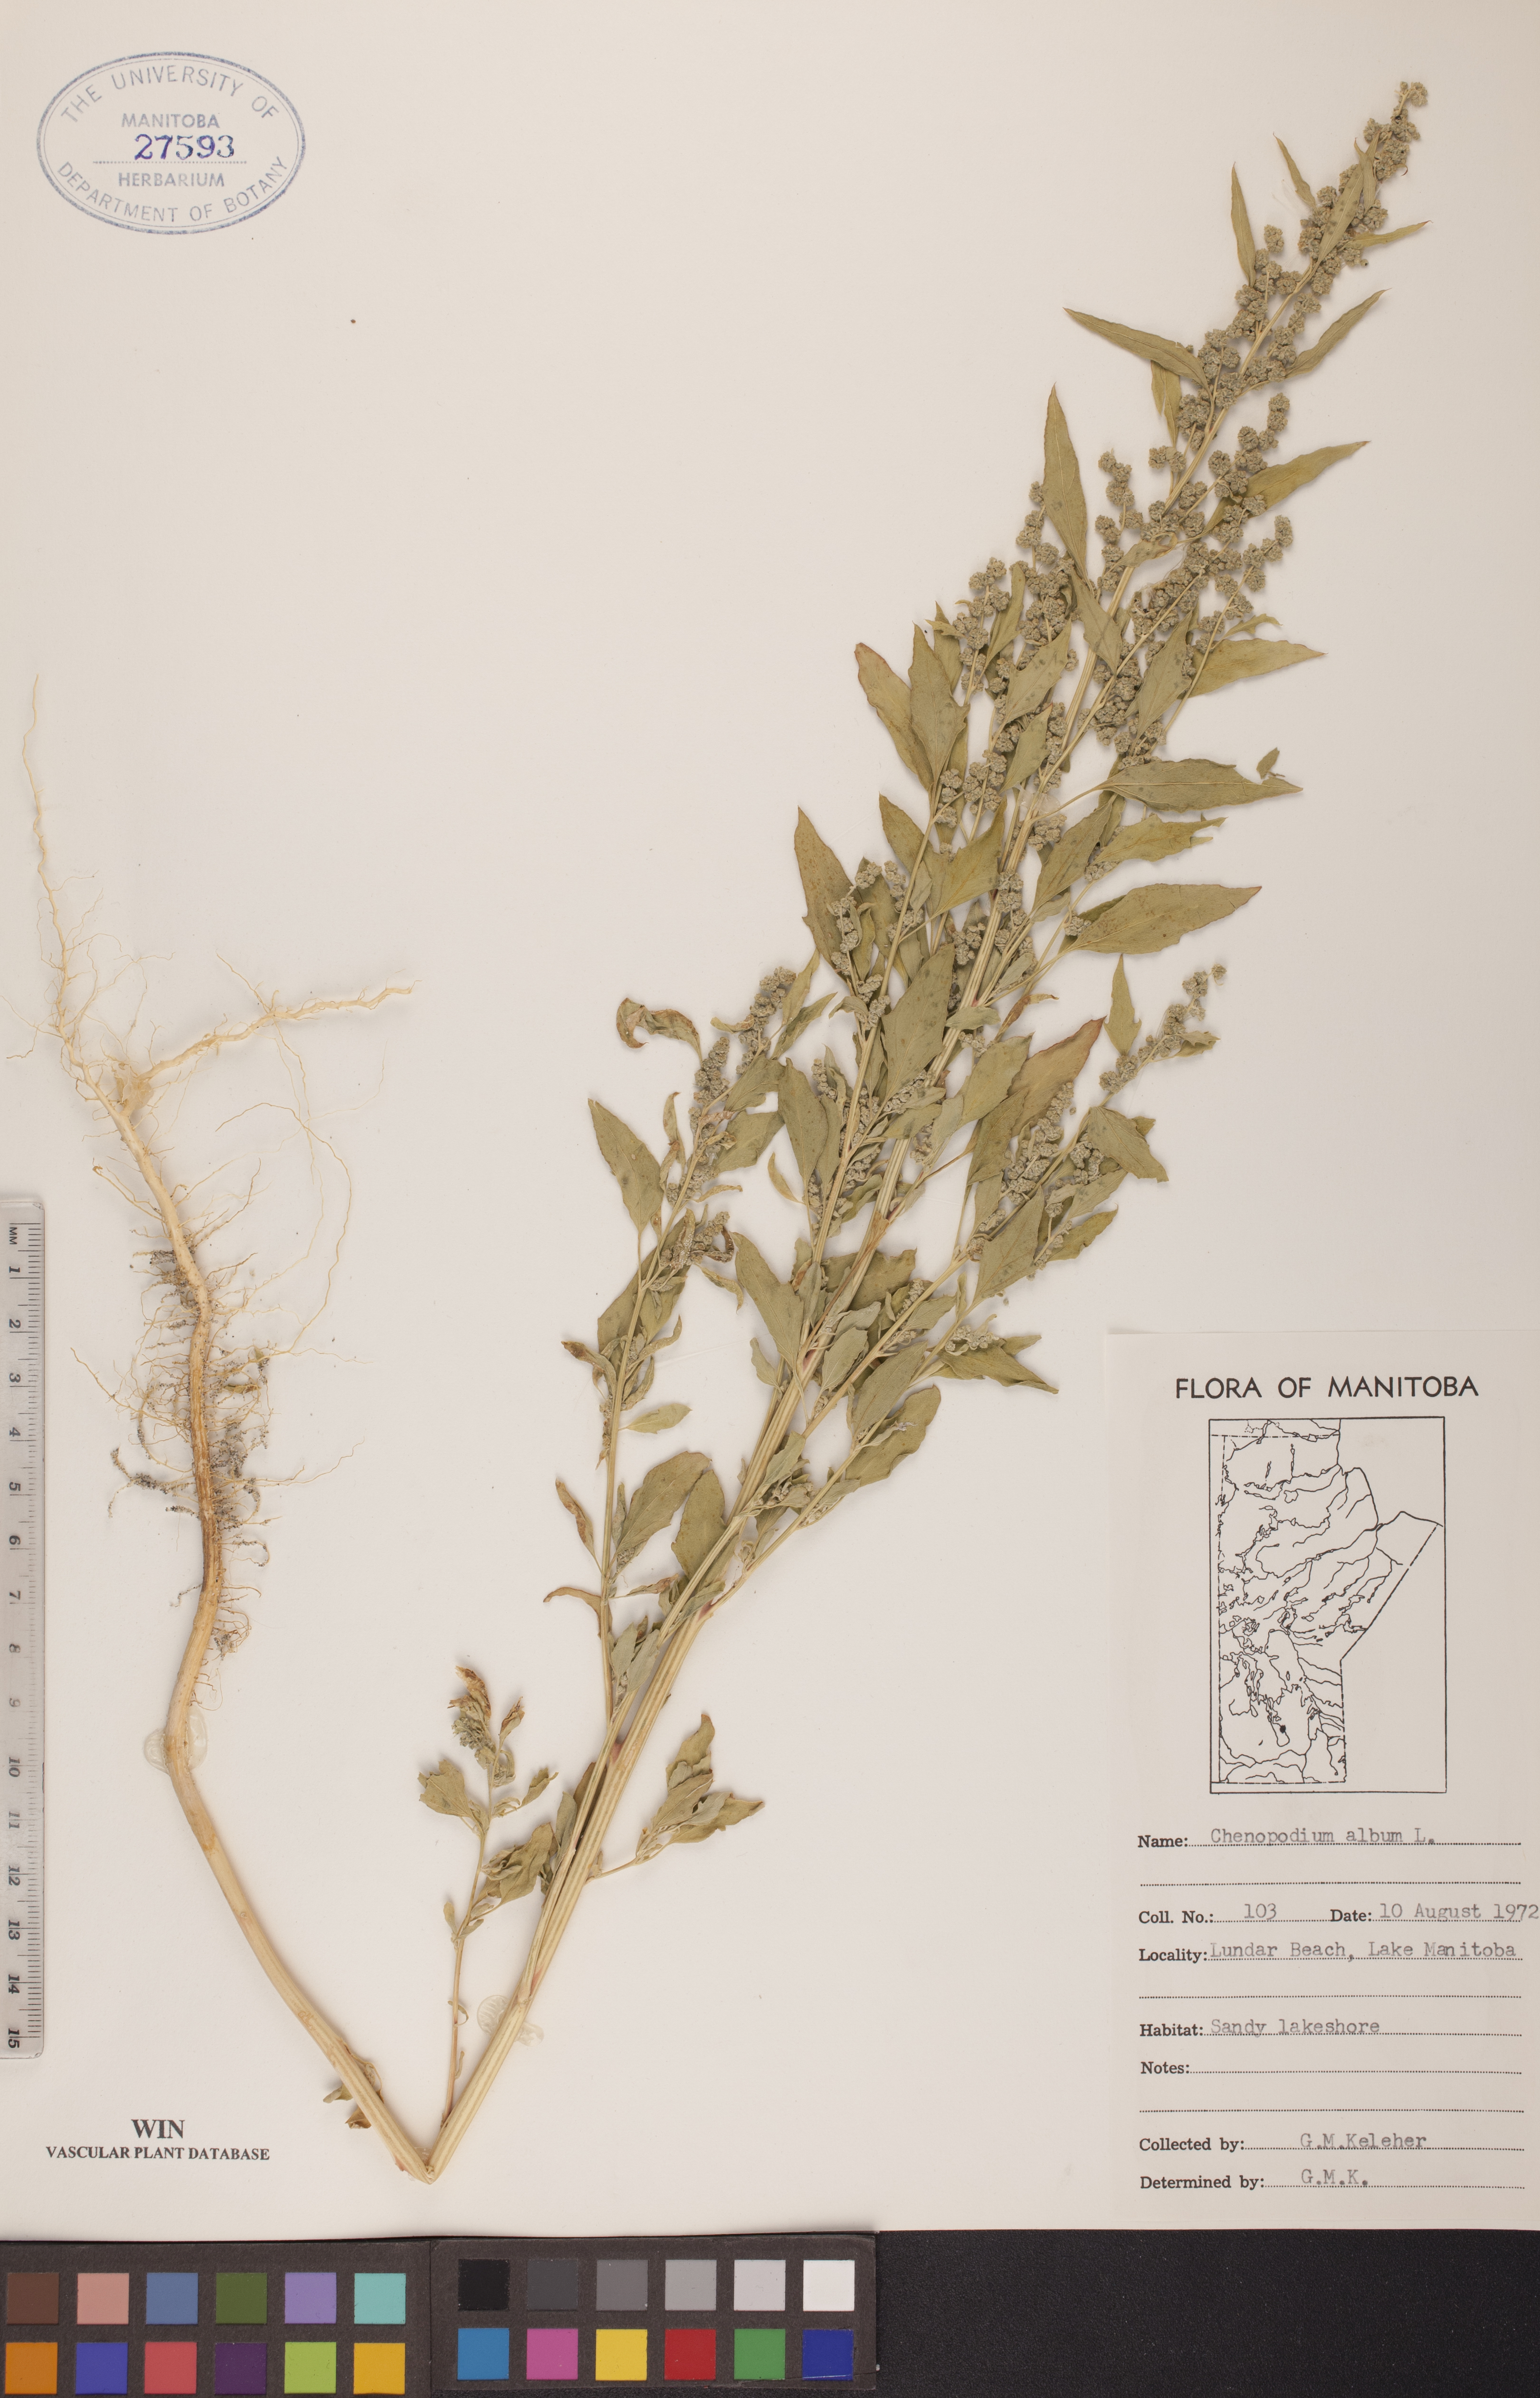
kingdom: Plantae
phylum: Tracheophyta
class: Magnoliopsida
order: Caryophyllales
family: Amaranthaceae
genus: Chenopodium
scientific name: Chenopodium album
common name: Fat-hen
